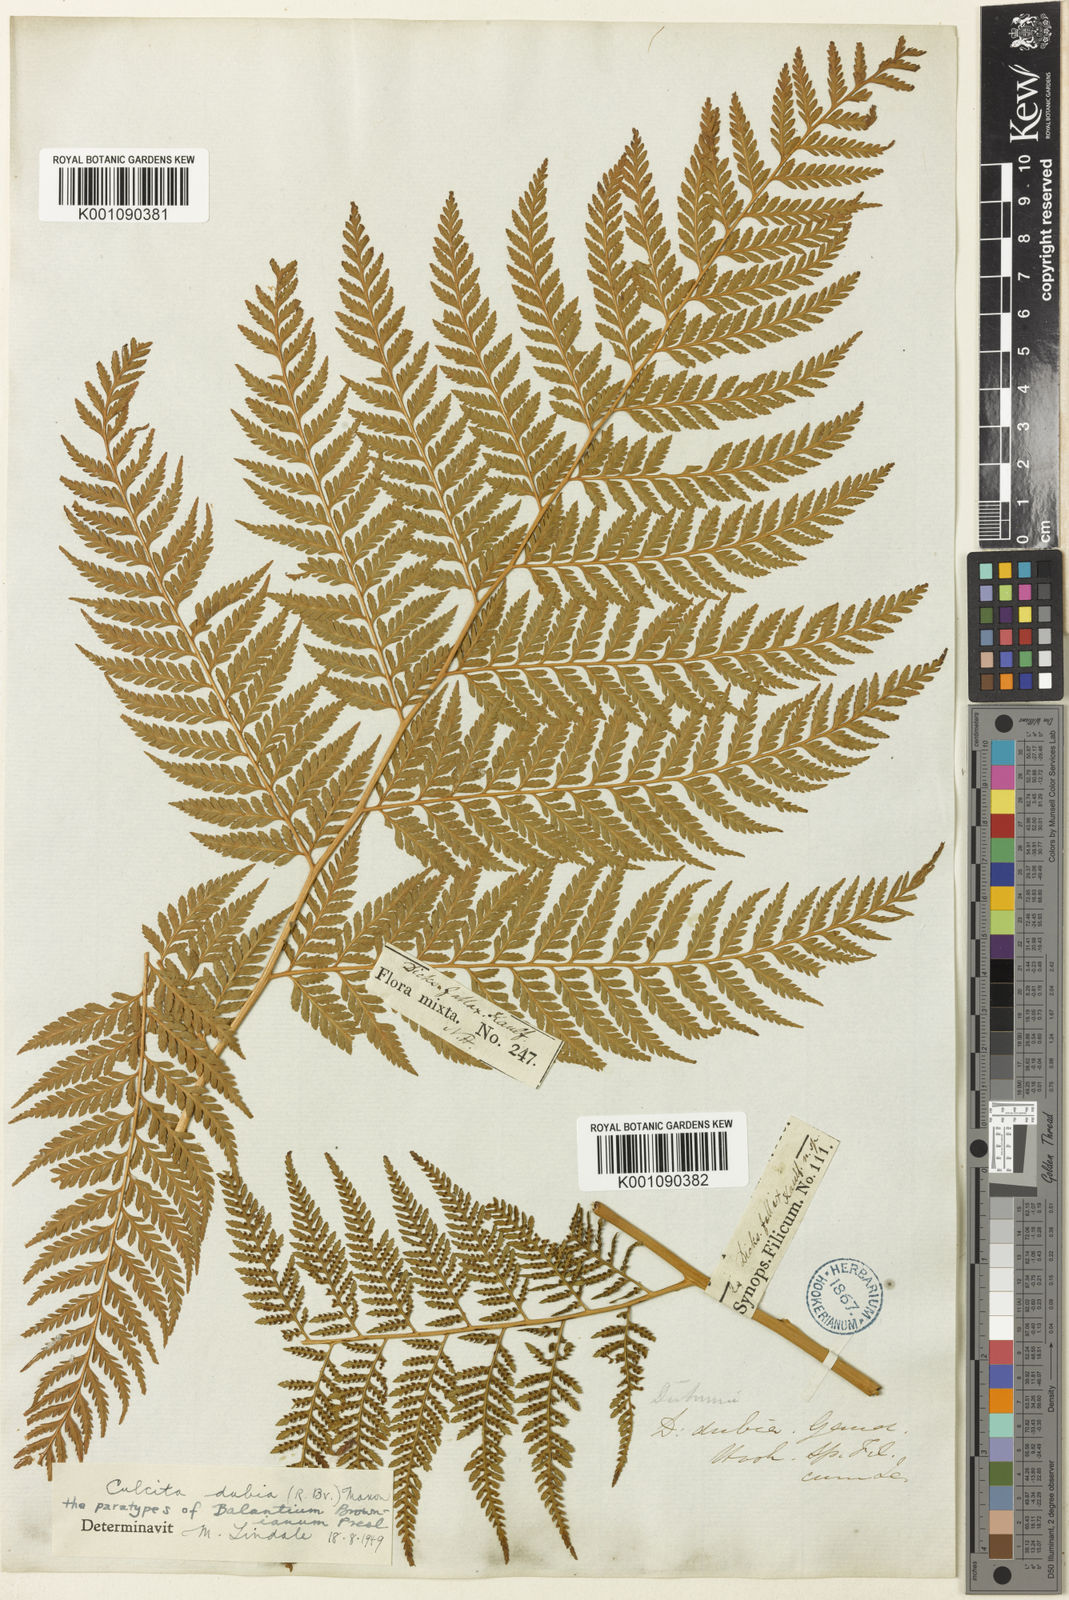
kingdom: Plantae
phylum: Tracheophyta
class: Polypodiopsida
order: Cyatheales
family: Dicksoniaceae
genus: Calochlaena
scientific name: Calochlaena dubia
